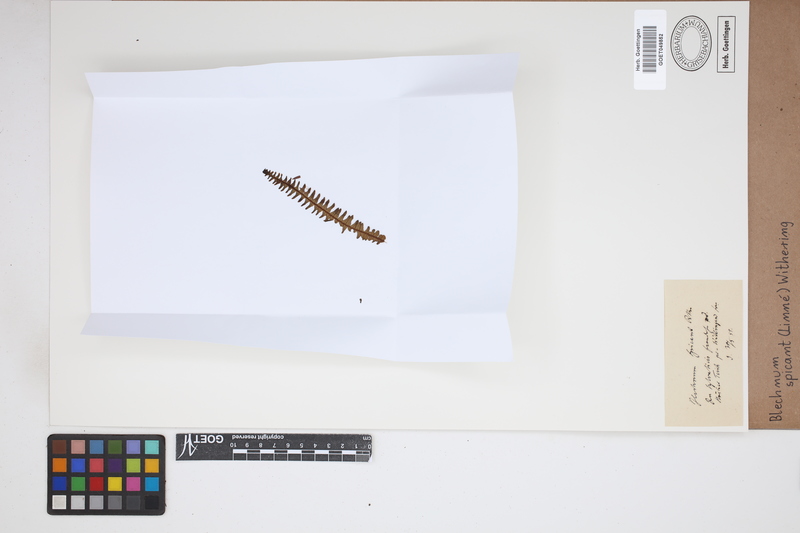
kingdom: Plantae
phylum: Tracheophyta
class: Polypodiopsida
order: Polypodiales
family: Blechnaceae
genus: Struthiopteris
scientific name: Struthiopteris spicant
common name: Deer fern
